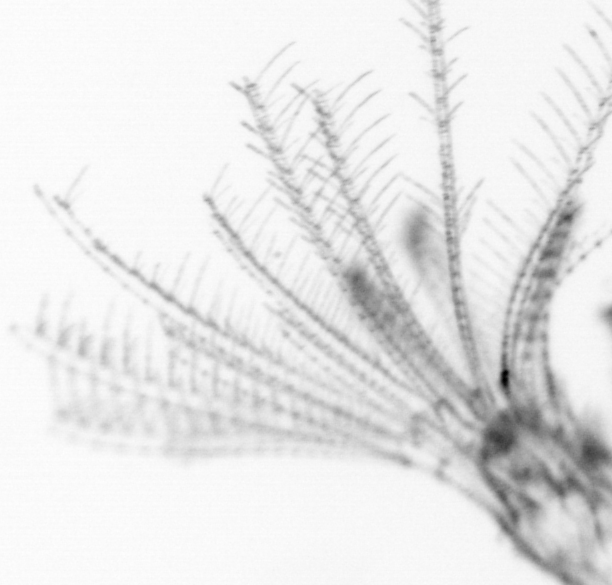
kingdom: Animalia
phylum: Arthropoda
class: Maxillopoda
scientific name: Maxillopoda
